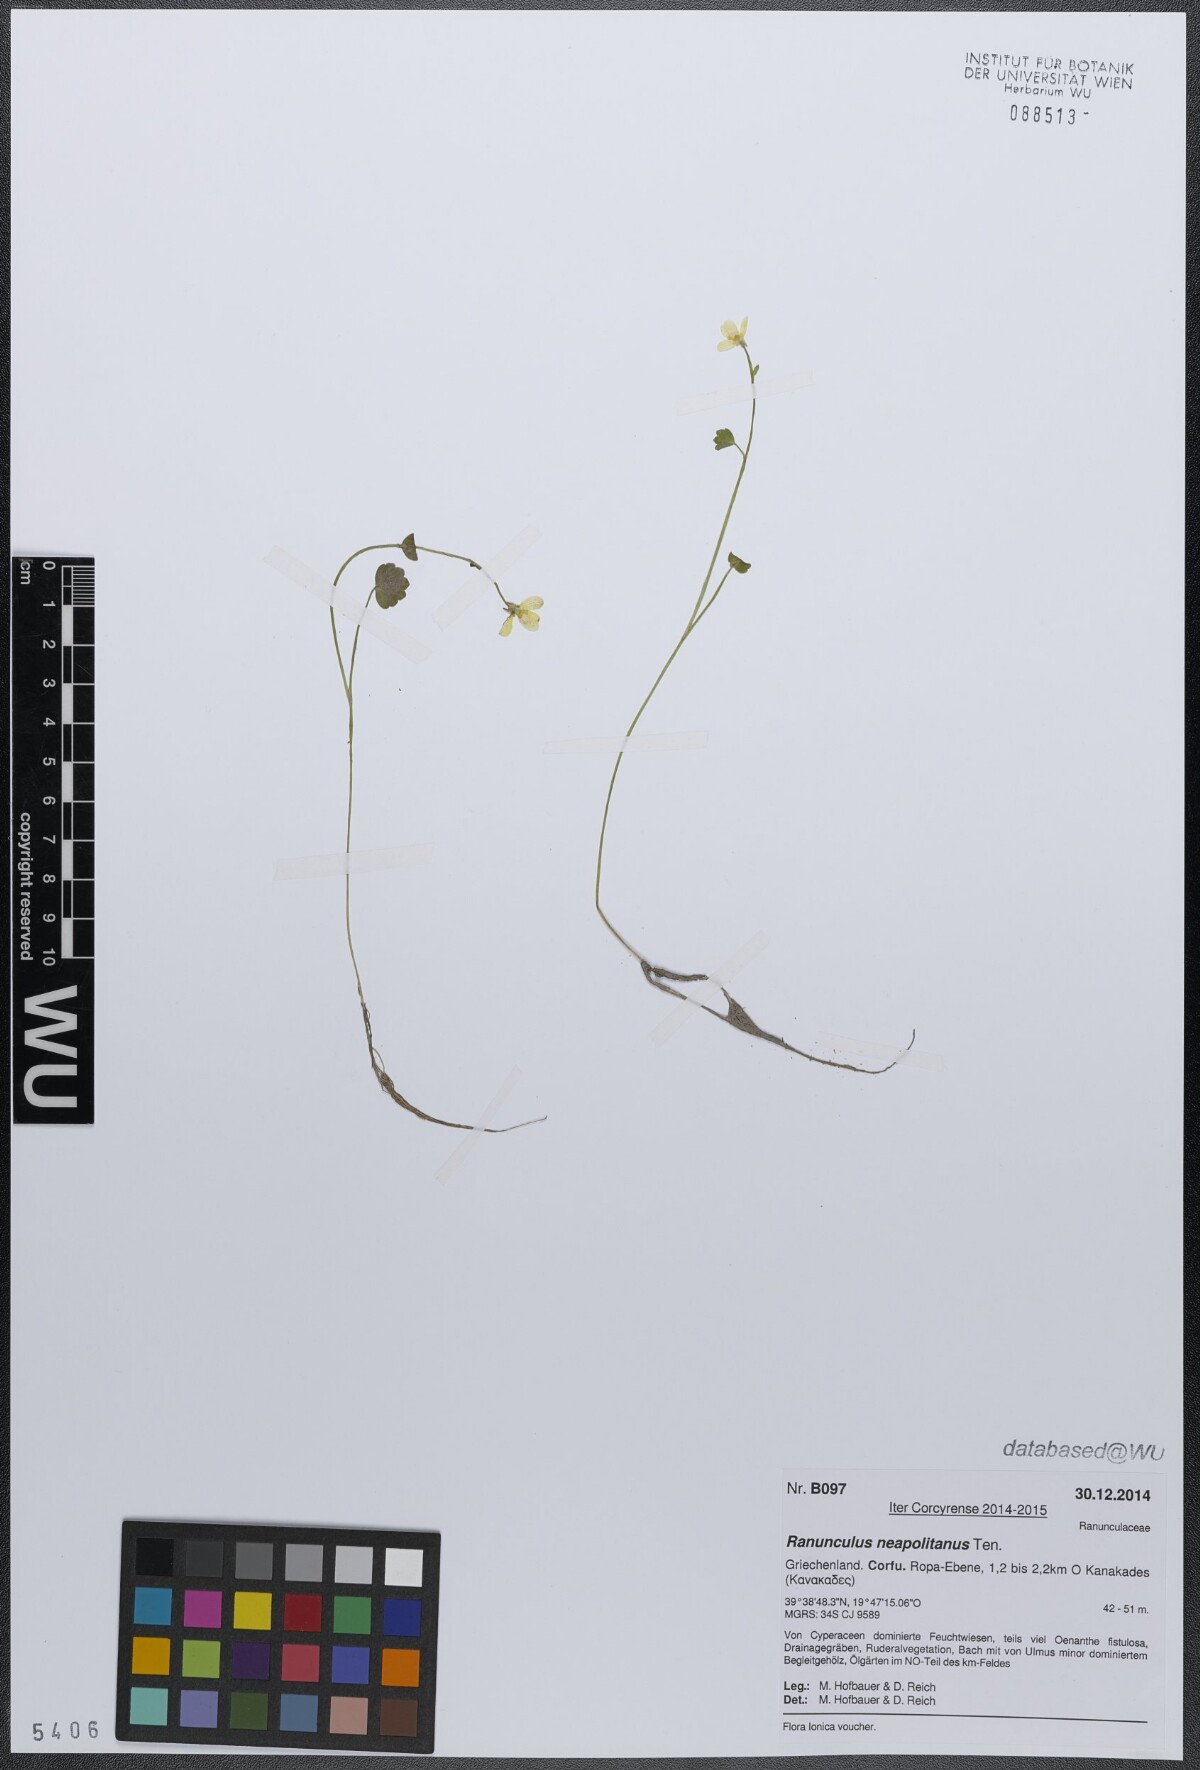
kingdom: Plantae
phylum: Tracheophyta
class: Magnoliopsida
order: Ranunculales
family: Ranunculaceae
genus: Ranunculus
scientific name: Ranunculus neapolitanus
